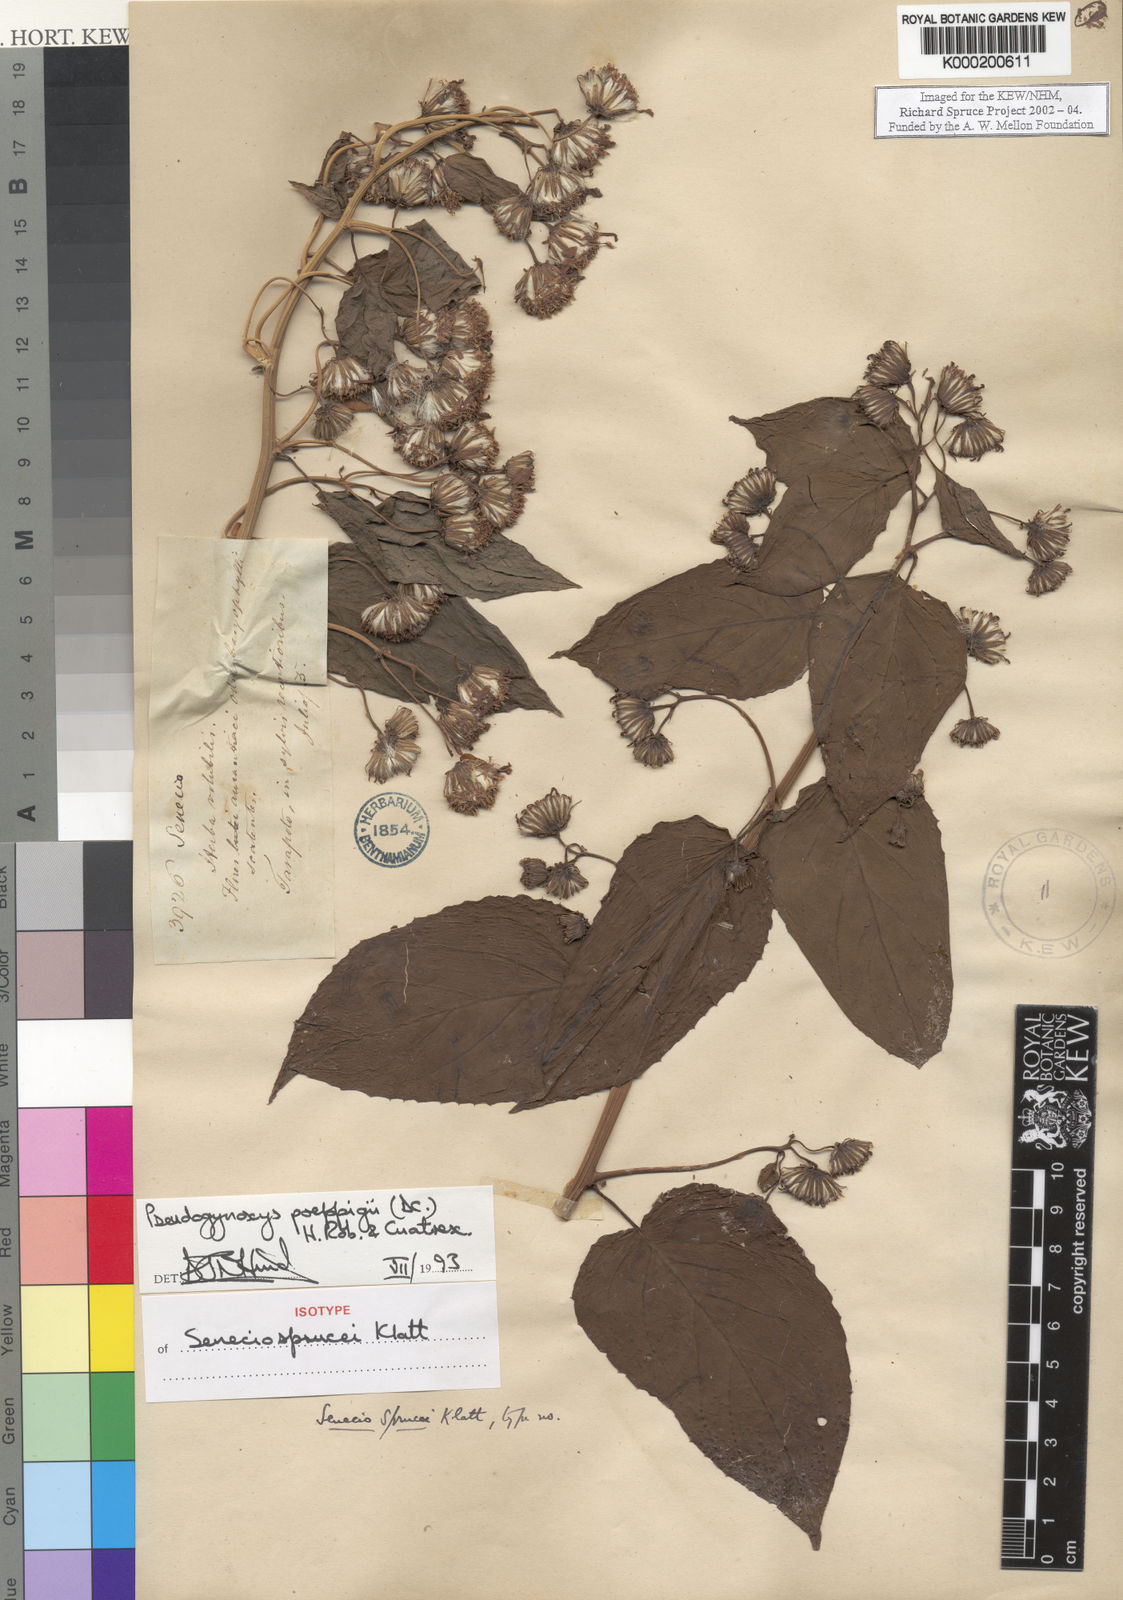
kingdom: Plantae
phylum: Tracheophyta
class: Magnoliopsida
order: Asterales
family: Asteraceae
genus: Pseudogynoxys
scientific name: Pseudogynoxys
